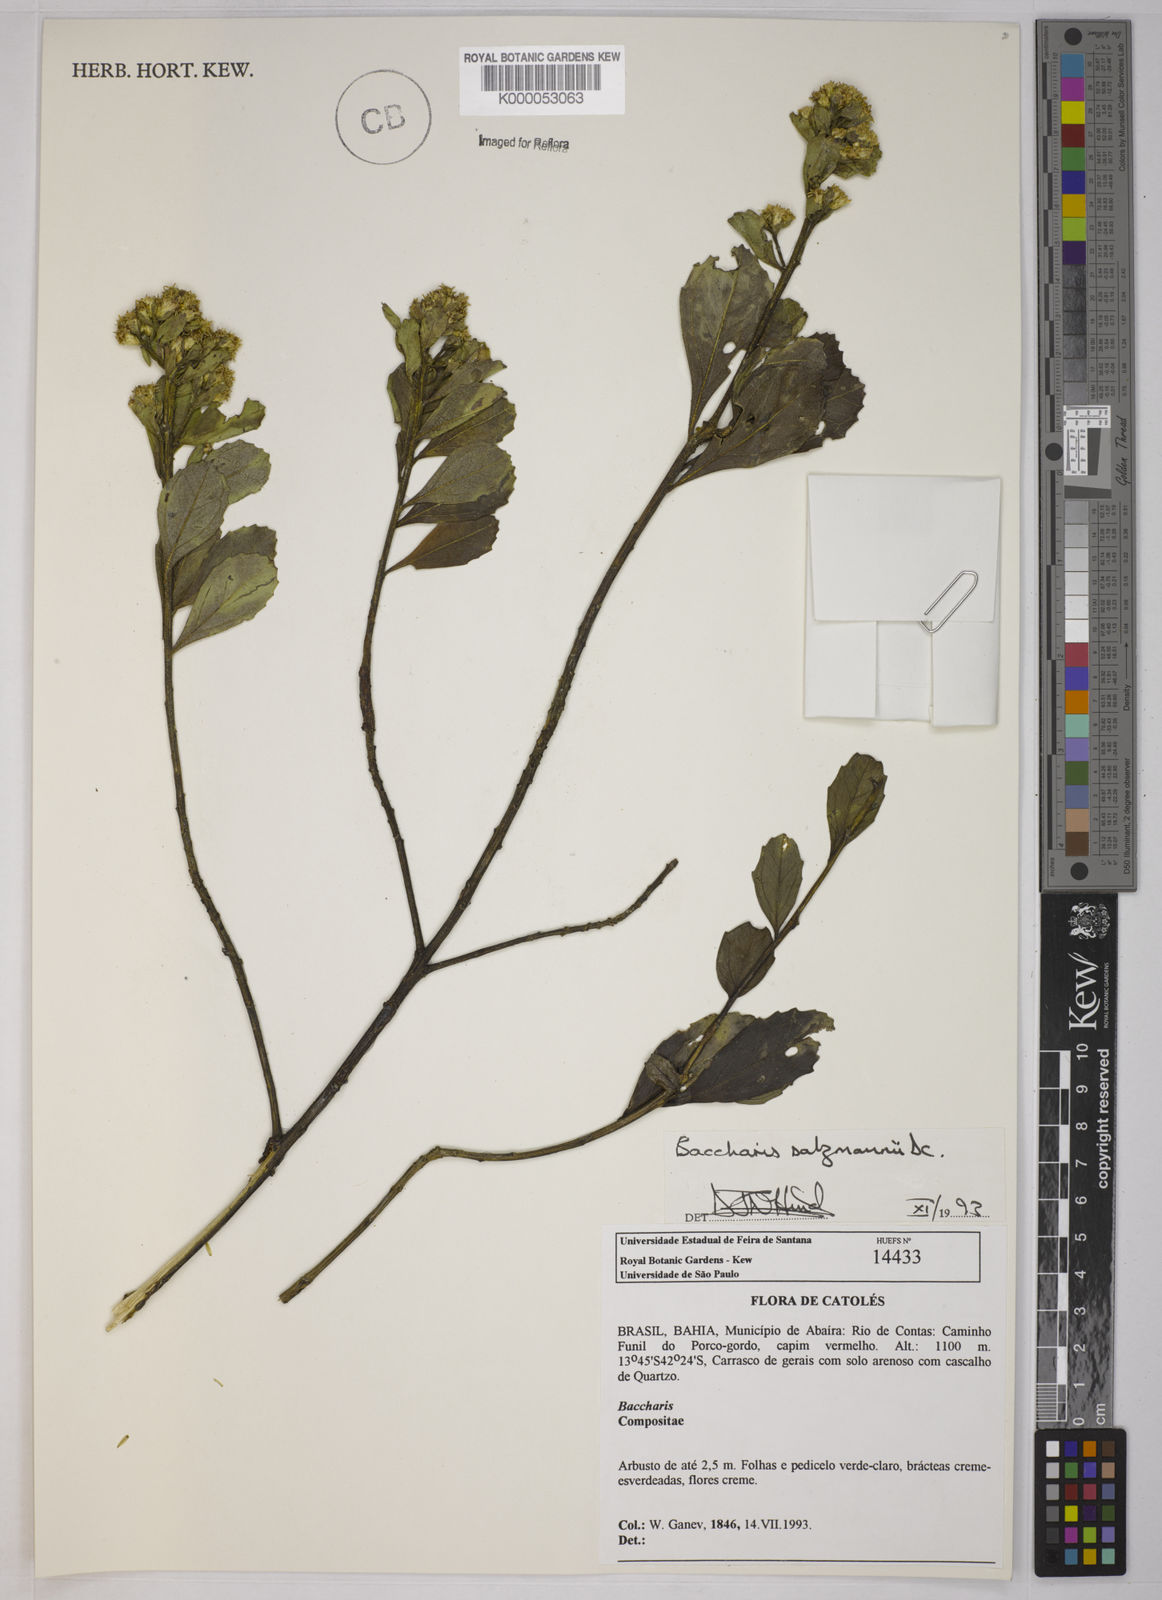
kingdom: Plantae
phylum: Tracheophyta
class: Magnoliopsida
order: Asterales
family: Asteraceae
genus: Baccharis
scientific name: Baccharis retusa
